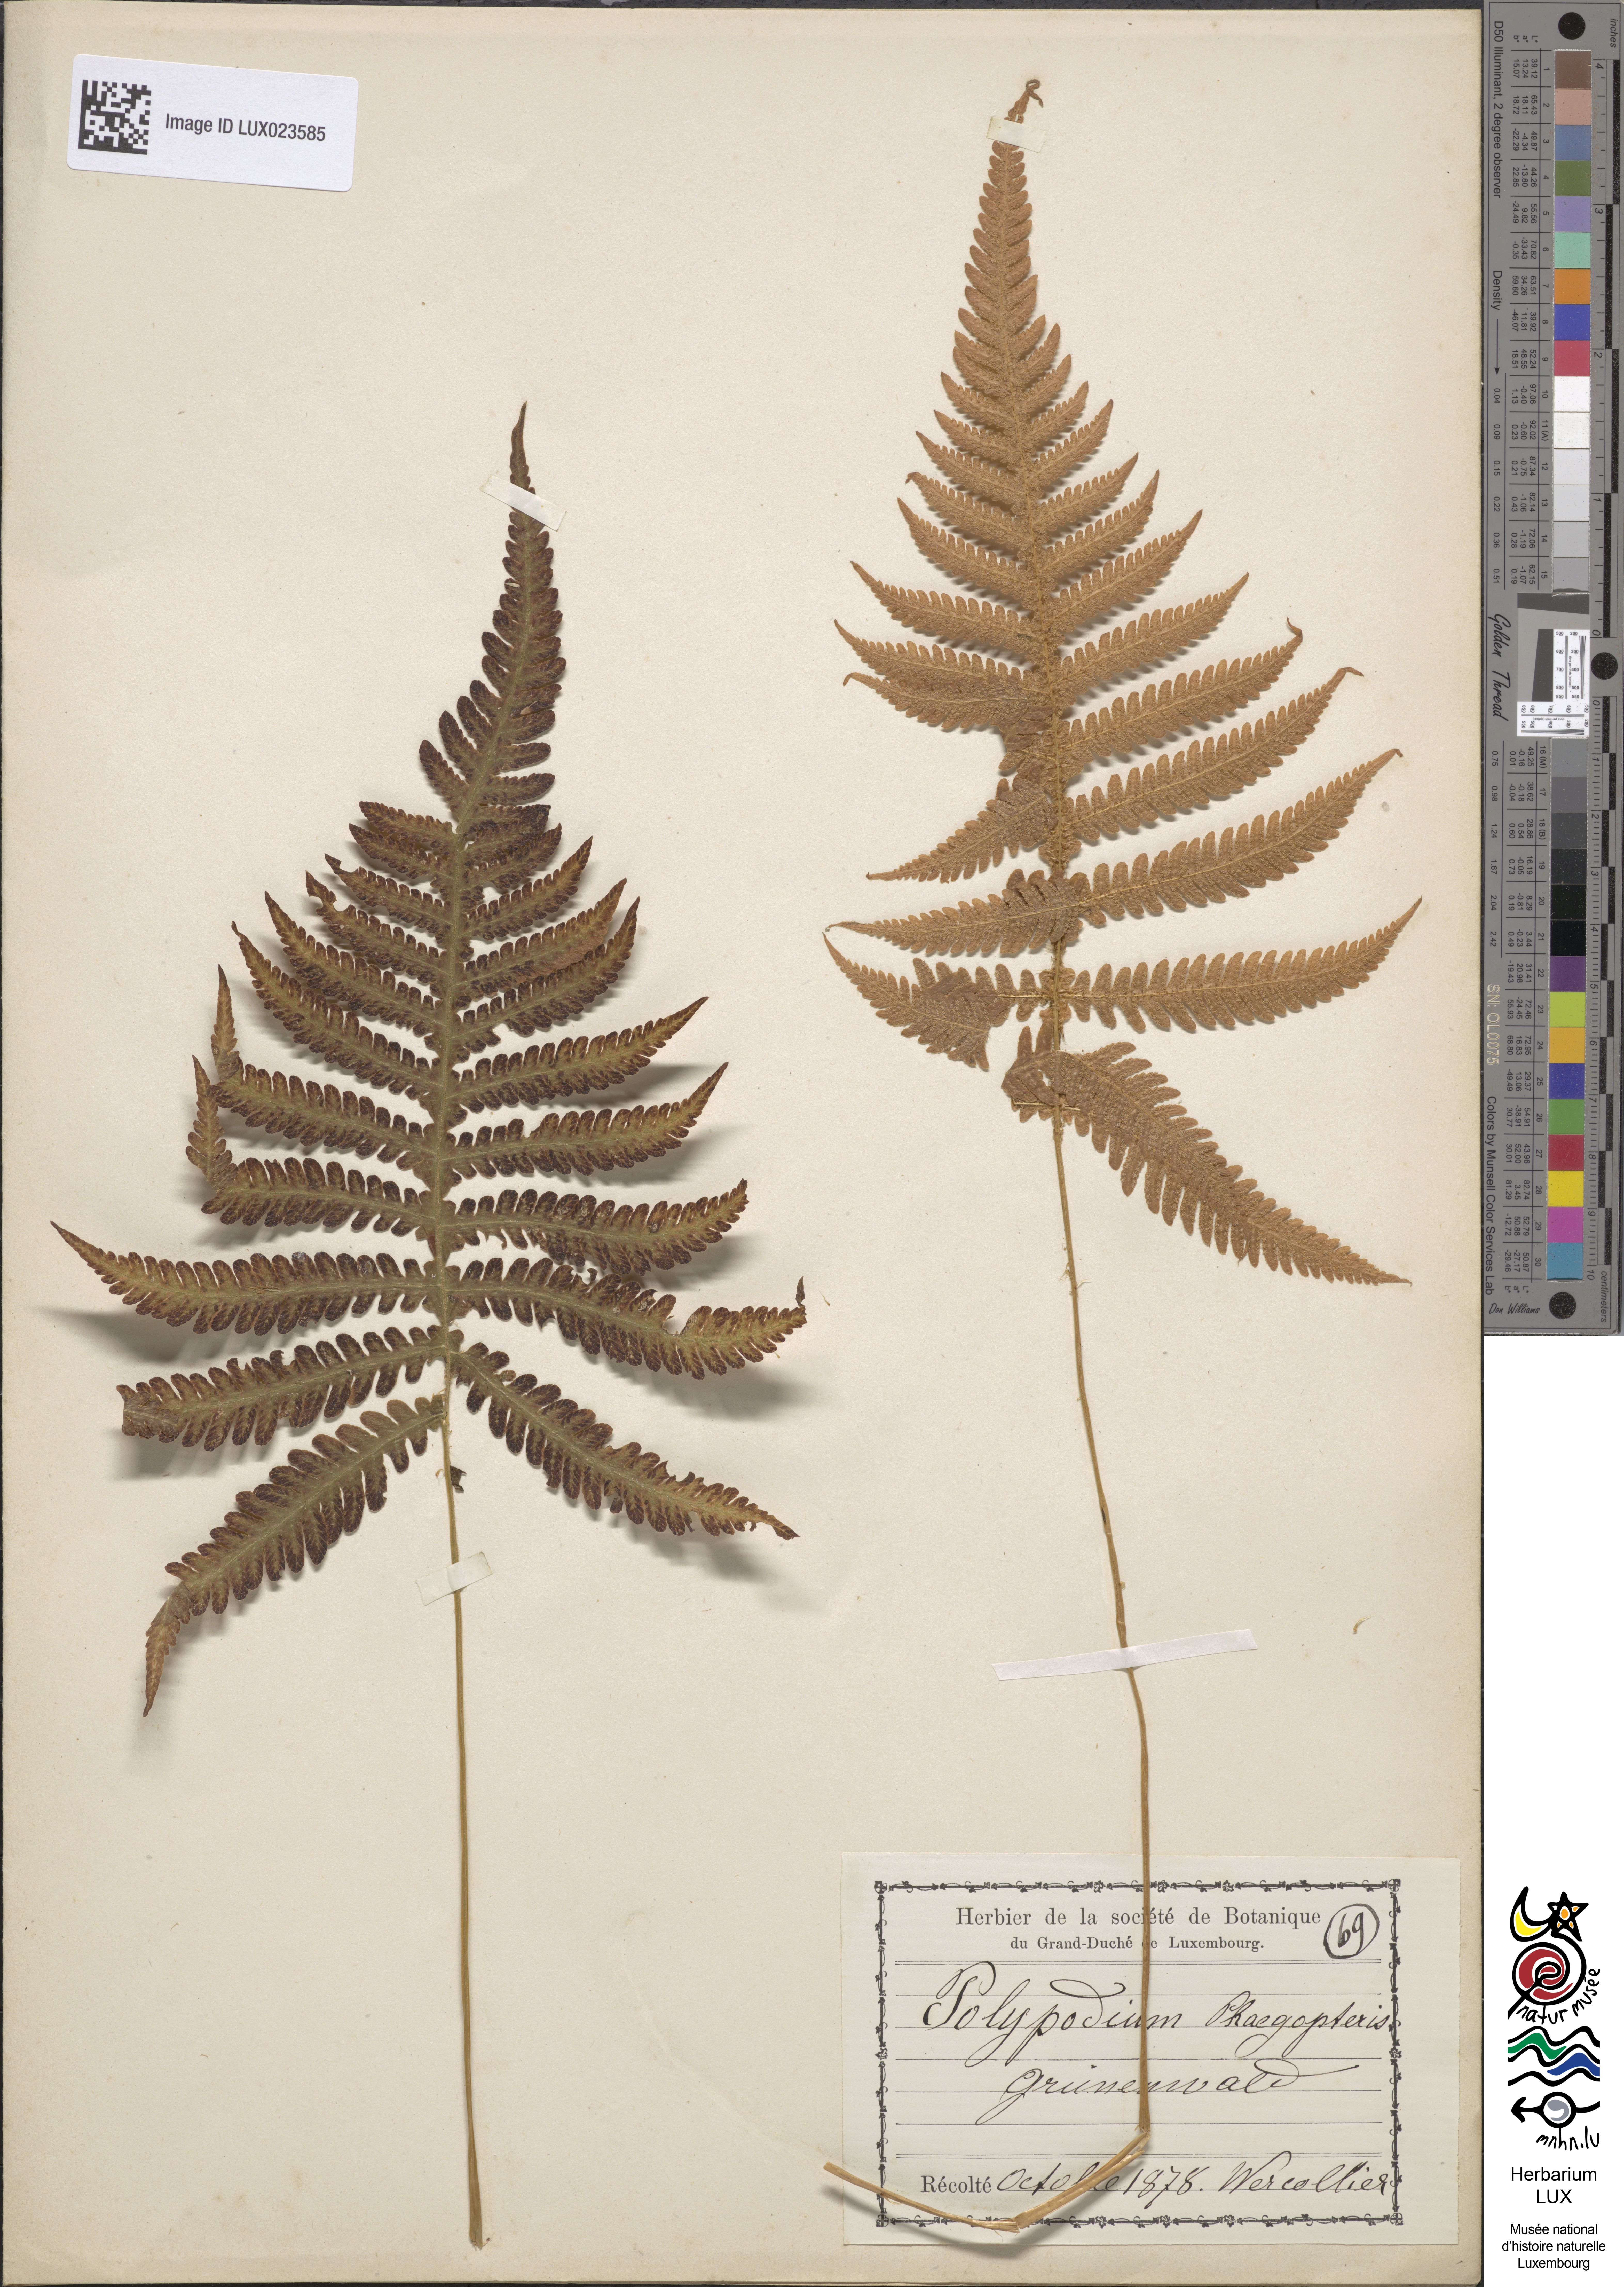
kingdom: Plantae
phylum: Tracheophyta
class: Polypodiopsida
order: Polypodiales
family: Thelypteridaceae
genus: Phegopteris
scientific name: Phegopteris connectilis
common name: Beech fern
